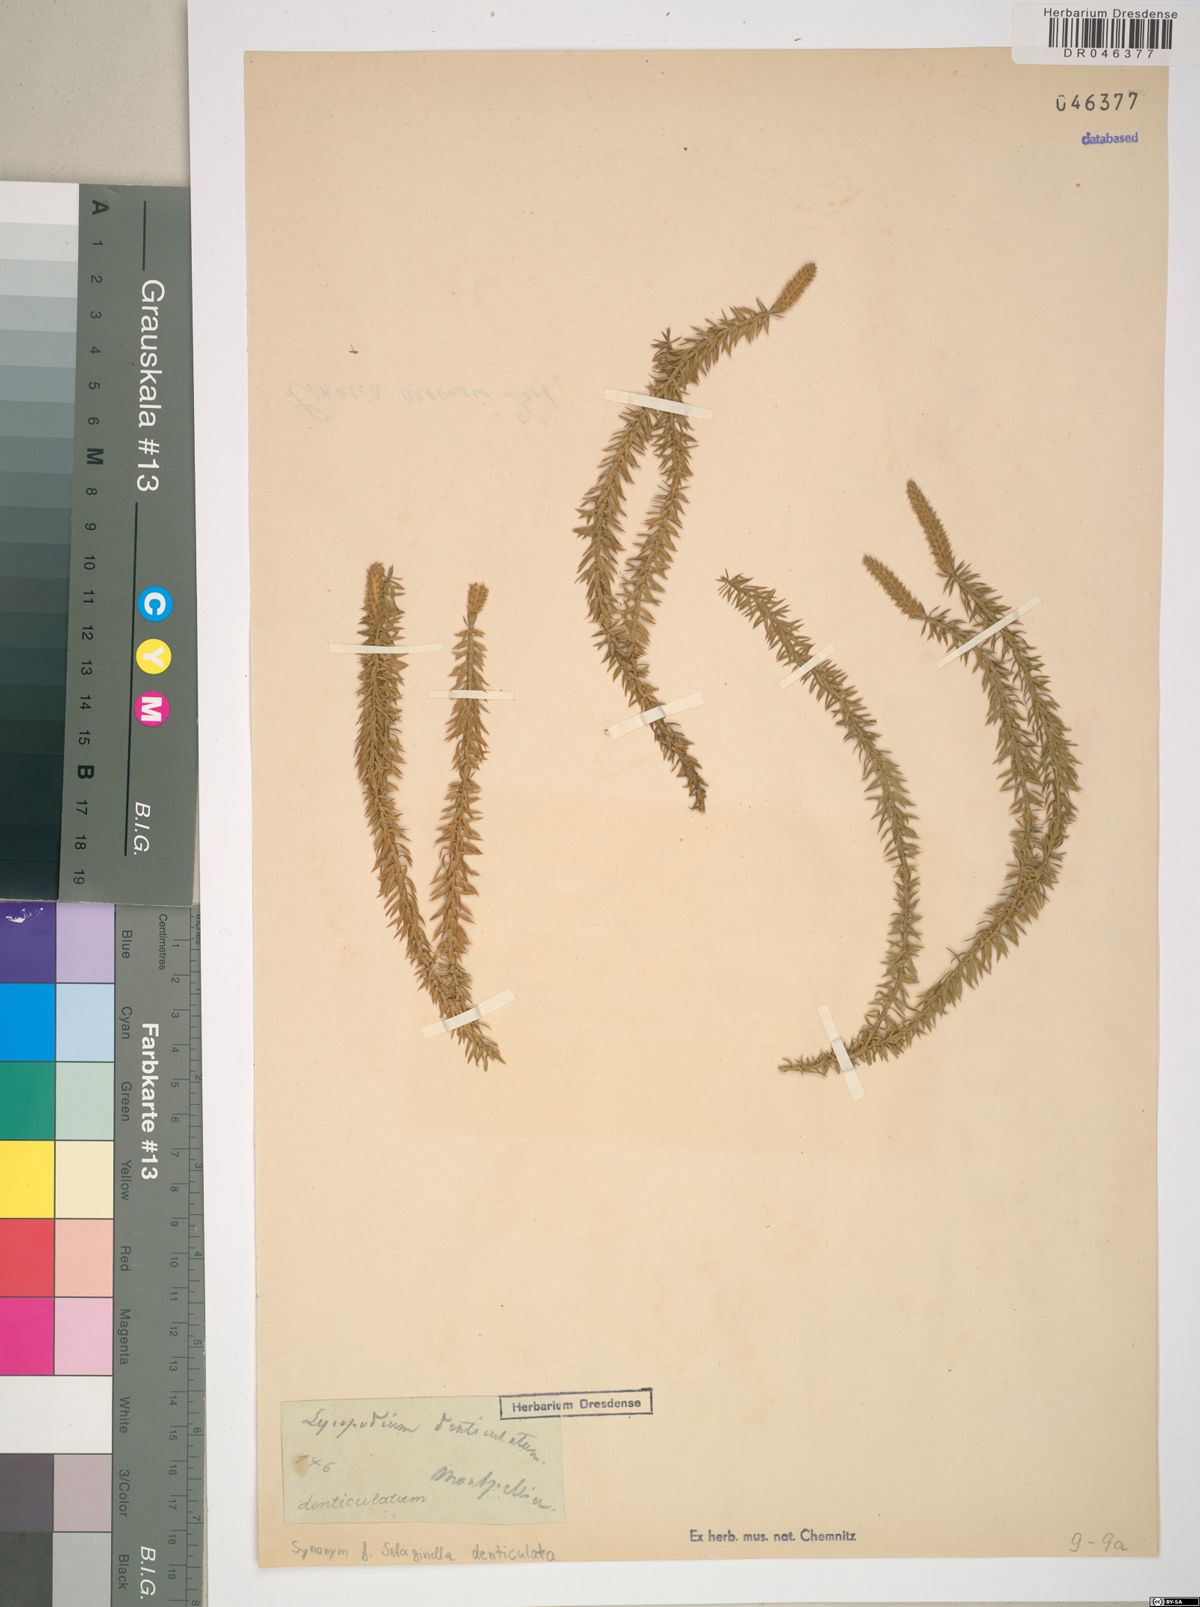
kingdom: Plantae
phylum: Tracheophyta
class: Lycopodiopsida
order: Selaginellales
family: Selaginellaceae
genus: Selaginella
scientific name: Selaginella denticulata
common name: Toothed-leaved clubmoss
